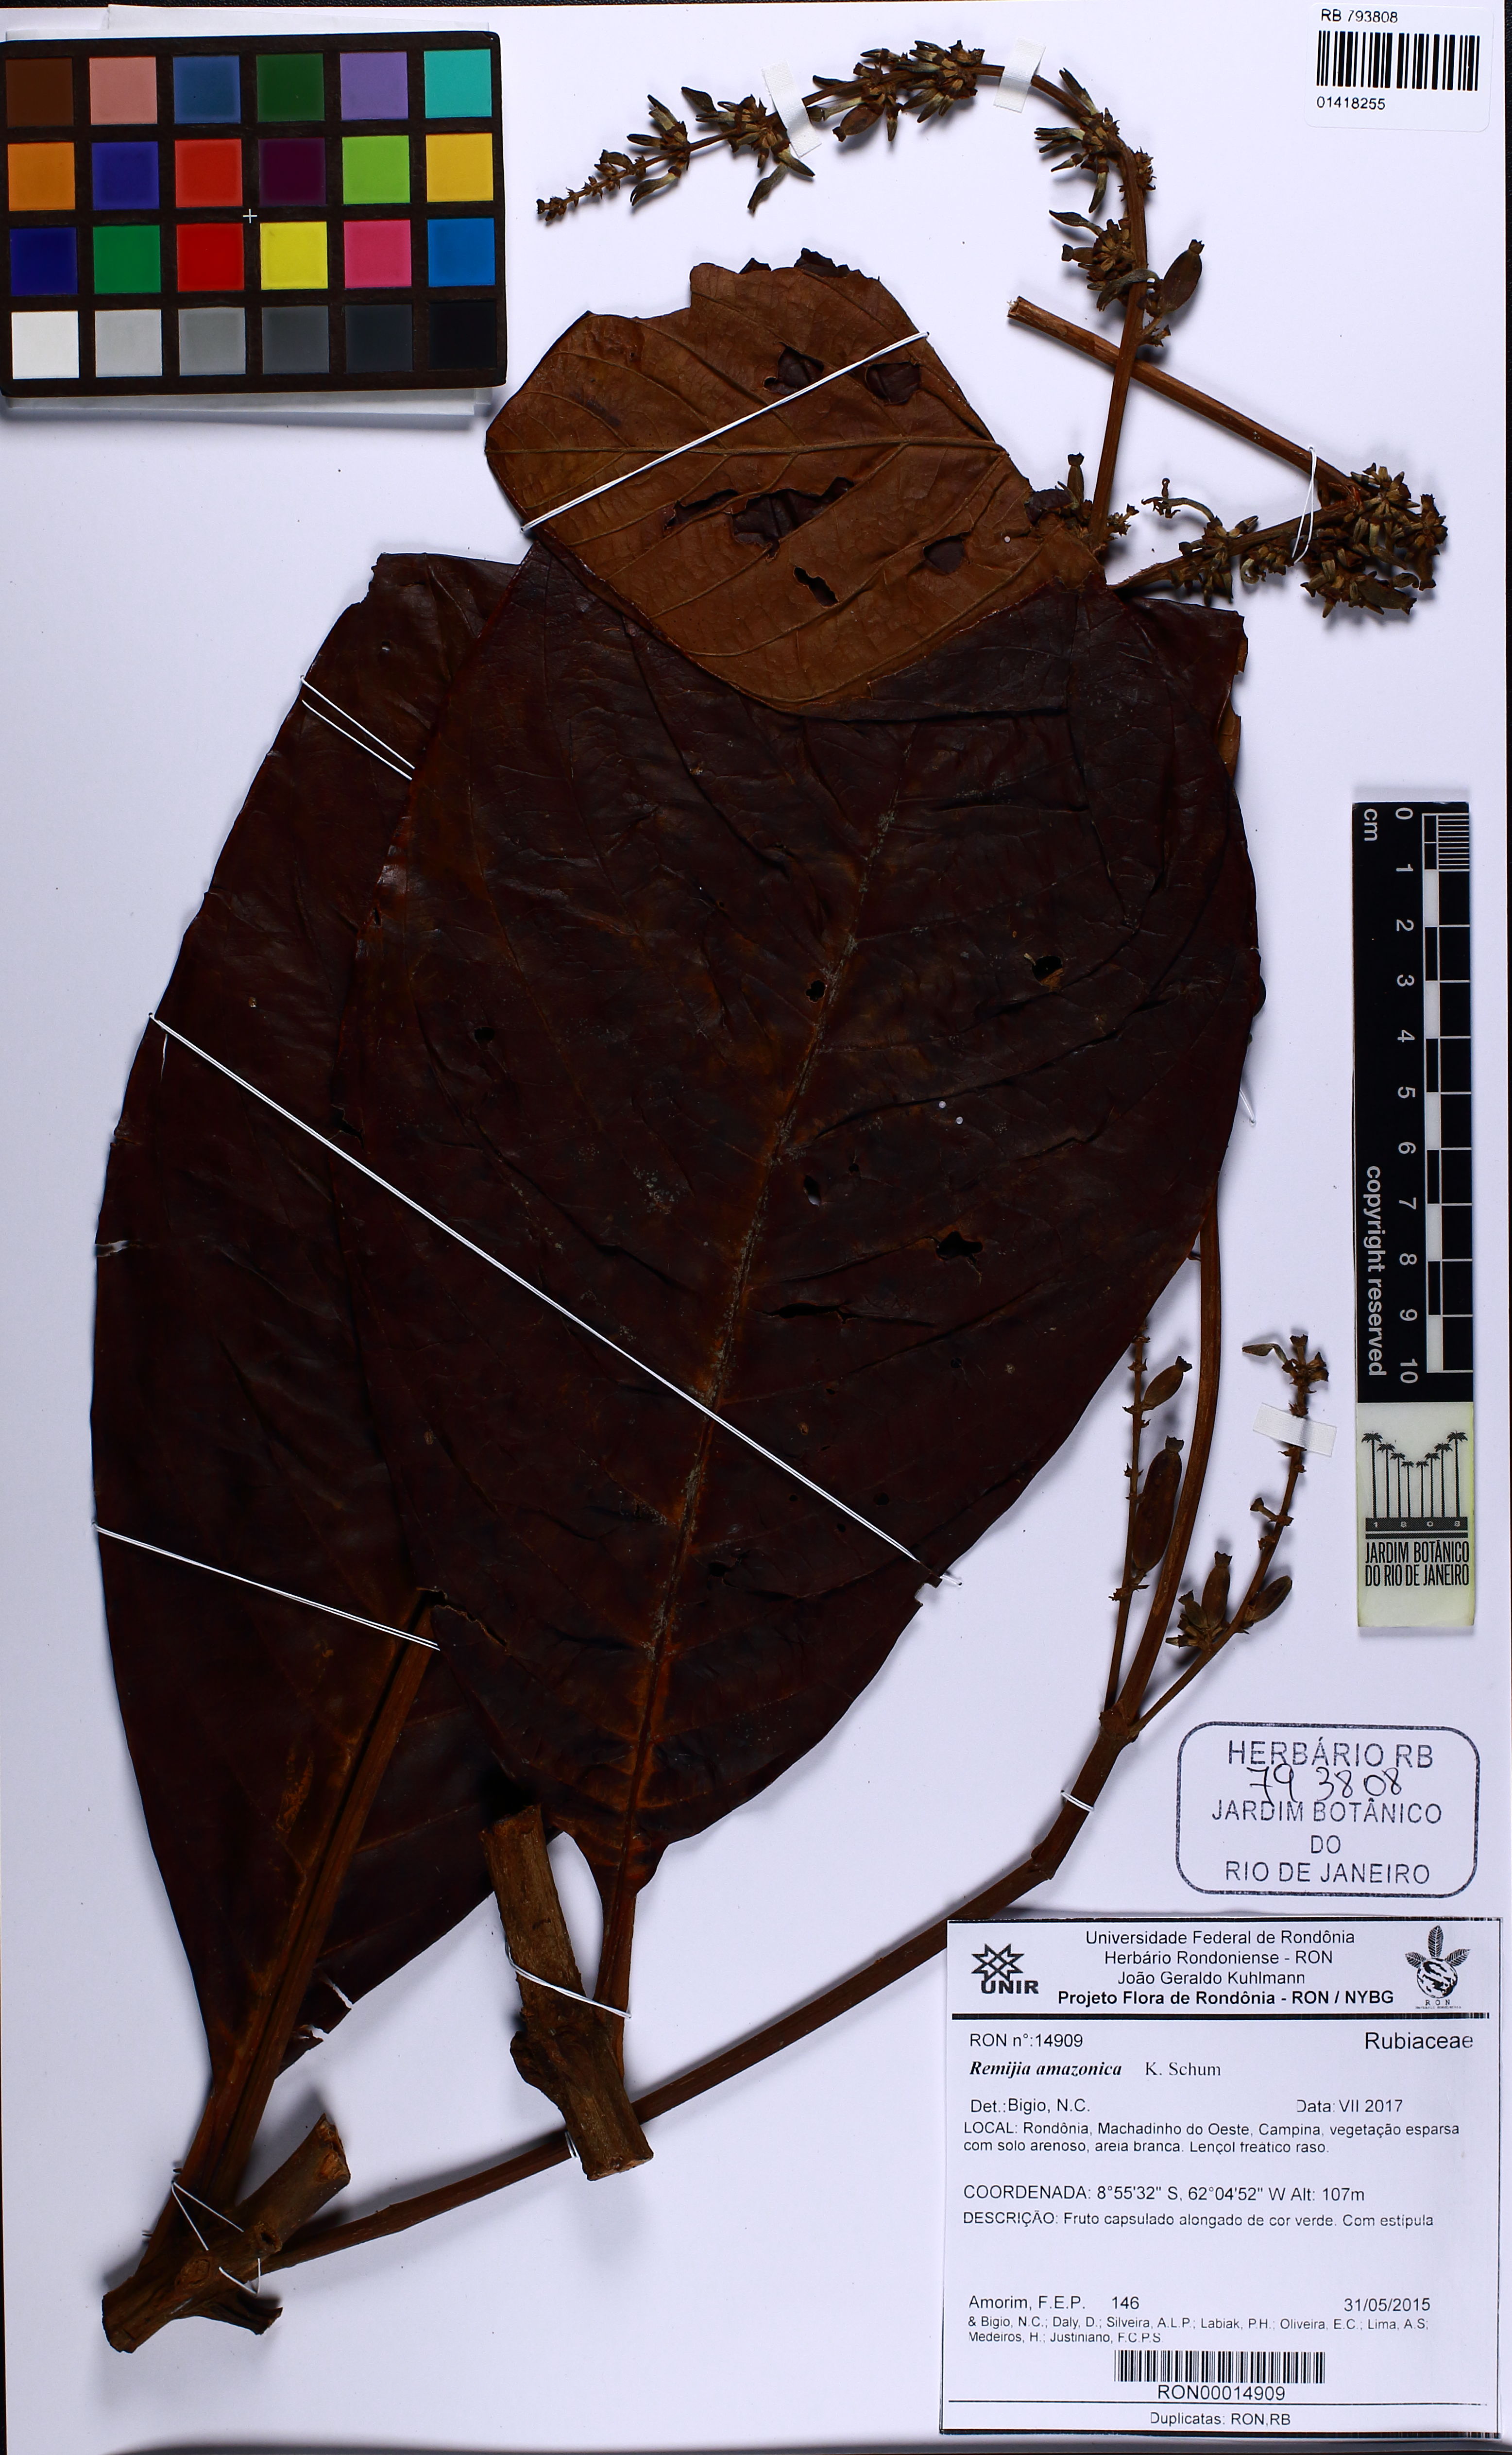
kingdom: Plantae
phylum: Tracheophyta
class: Magnoliopsida
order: Gentianales
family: Rubiaceae
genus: Remijia
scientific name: Remijia amazonica
